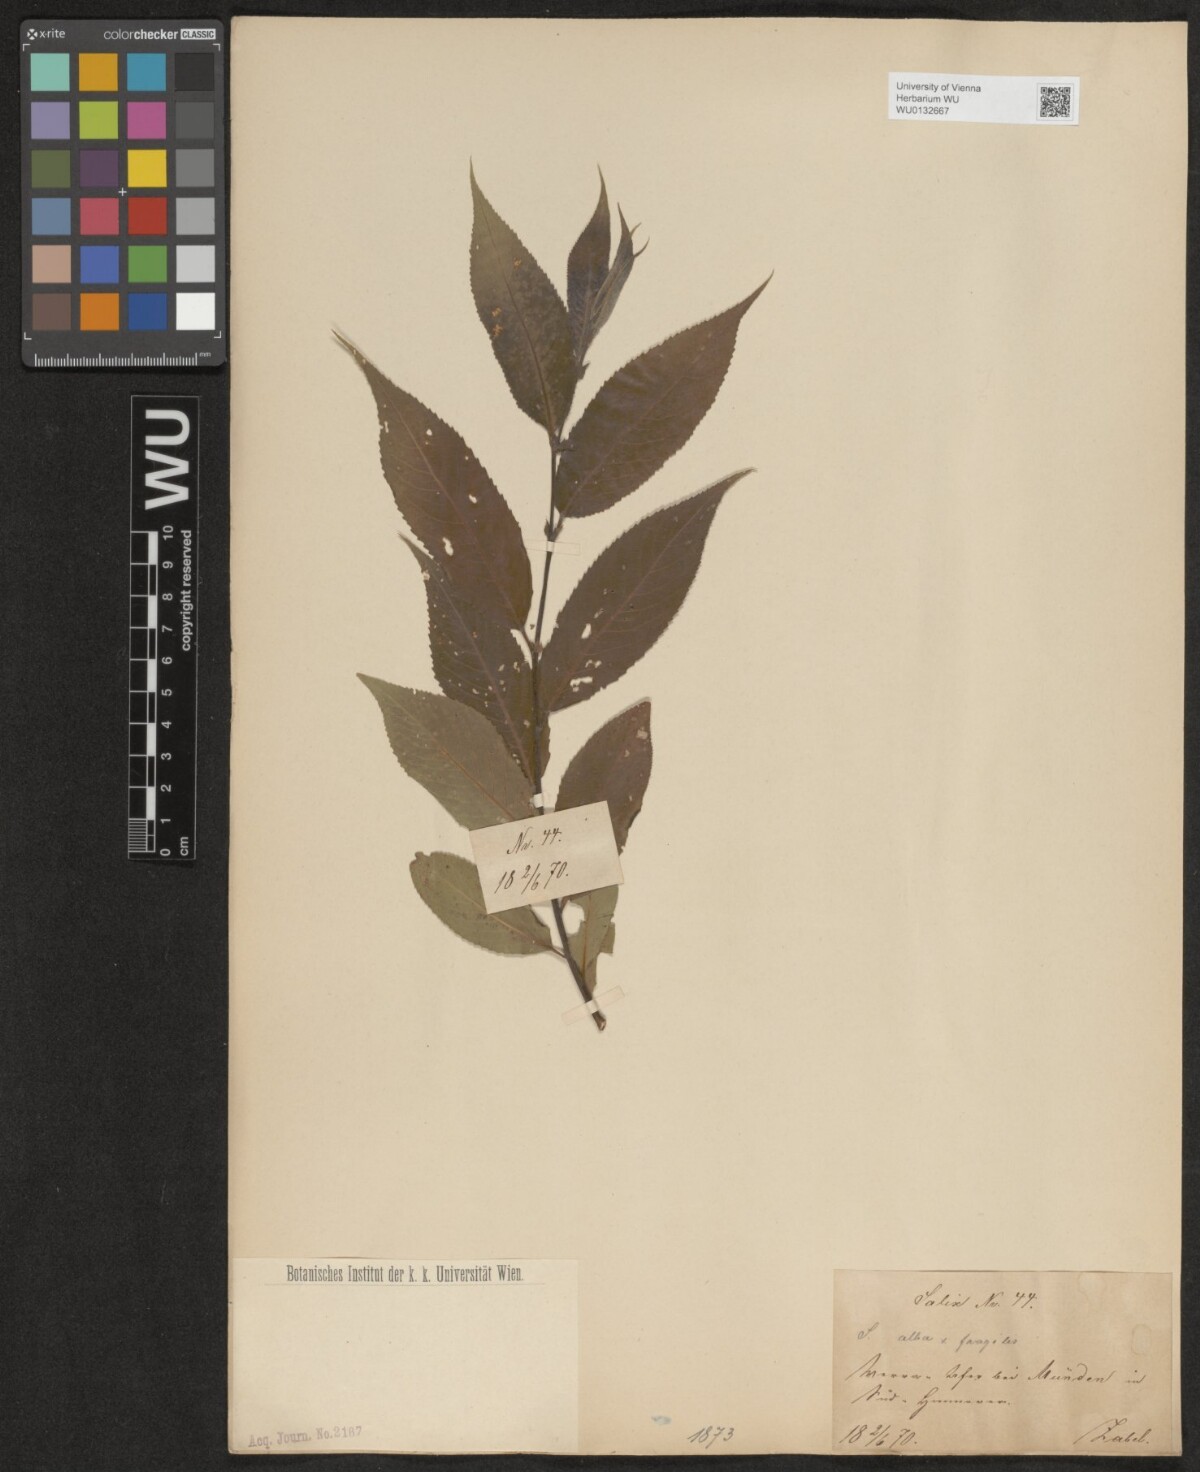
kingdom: Plantae
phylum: Tracheophyta
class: Magnoliopsida
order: Malpighiales
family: Salicaceae
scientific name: Salicaceae
